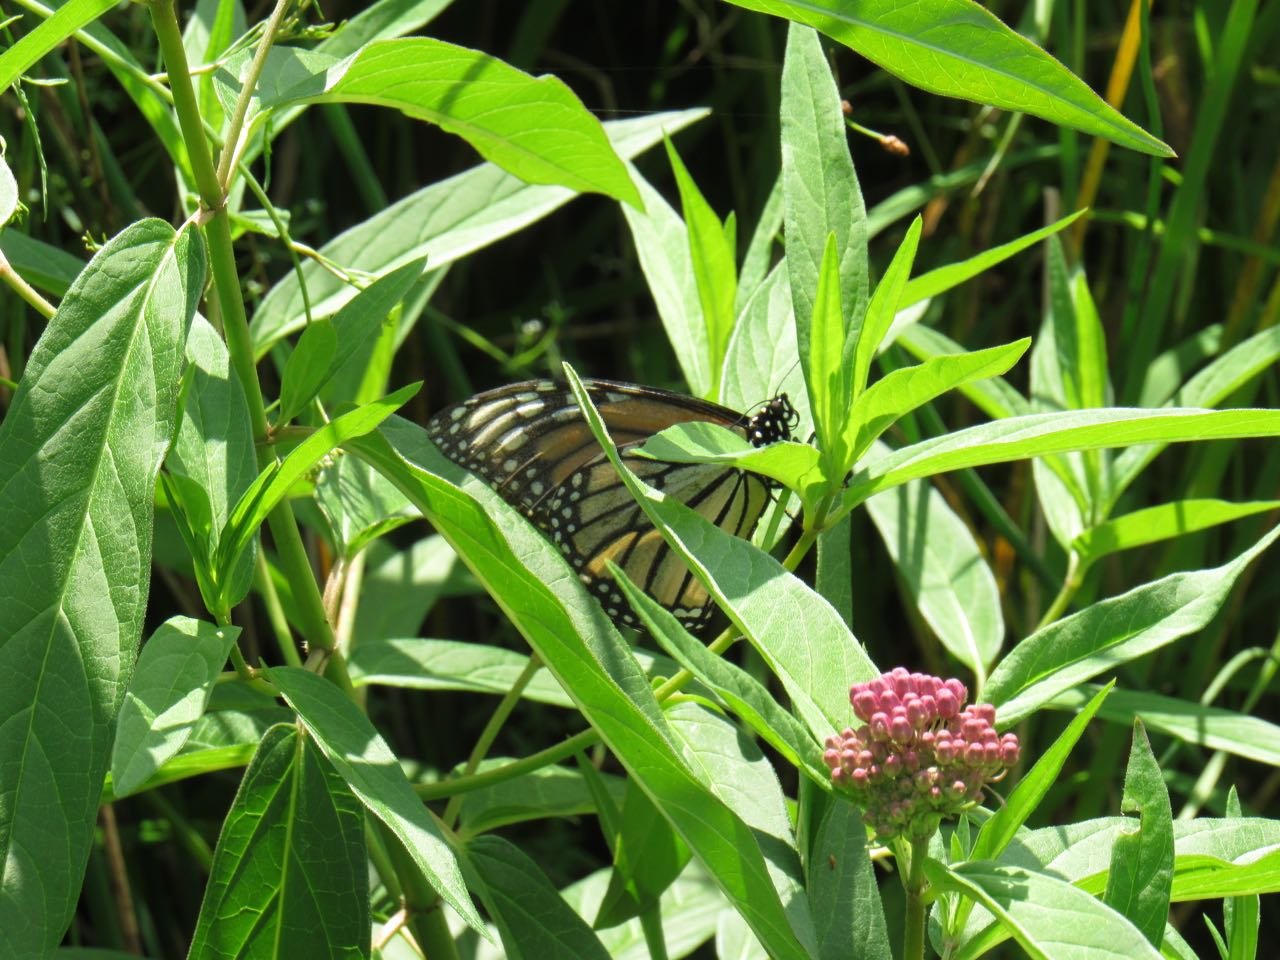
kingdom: Animalia
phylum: Arthropoda
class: Insecta
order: Lepidoptera
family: Nymphalidae
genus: Danaus
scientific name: Danaus plexippus
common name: Monarch
